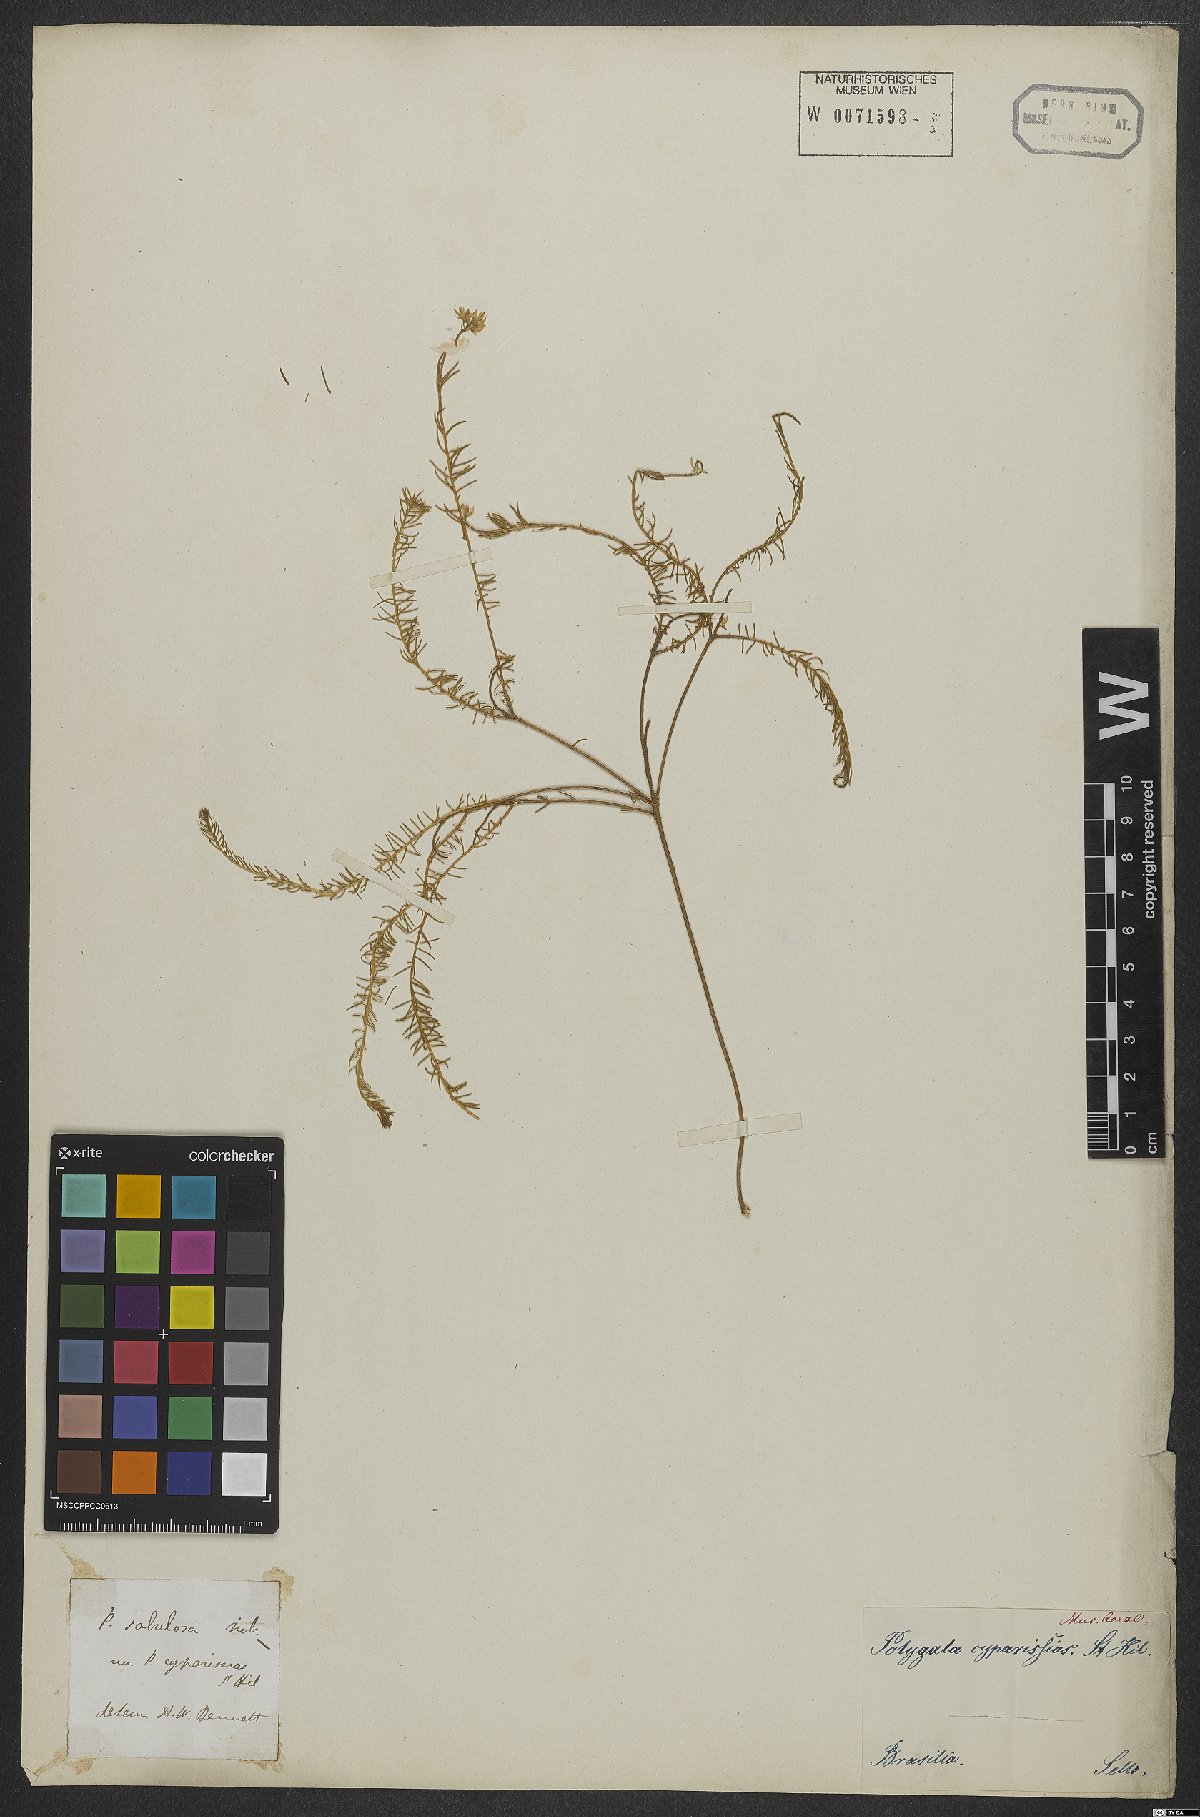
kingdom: Plantae
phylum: Tracheophyta
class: Magnoliopsida
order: Fabales
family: Polygalaceae
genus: Polygala
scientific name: Polygala cyparissias
